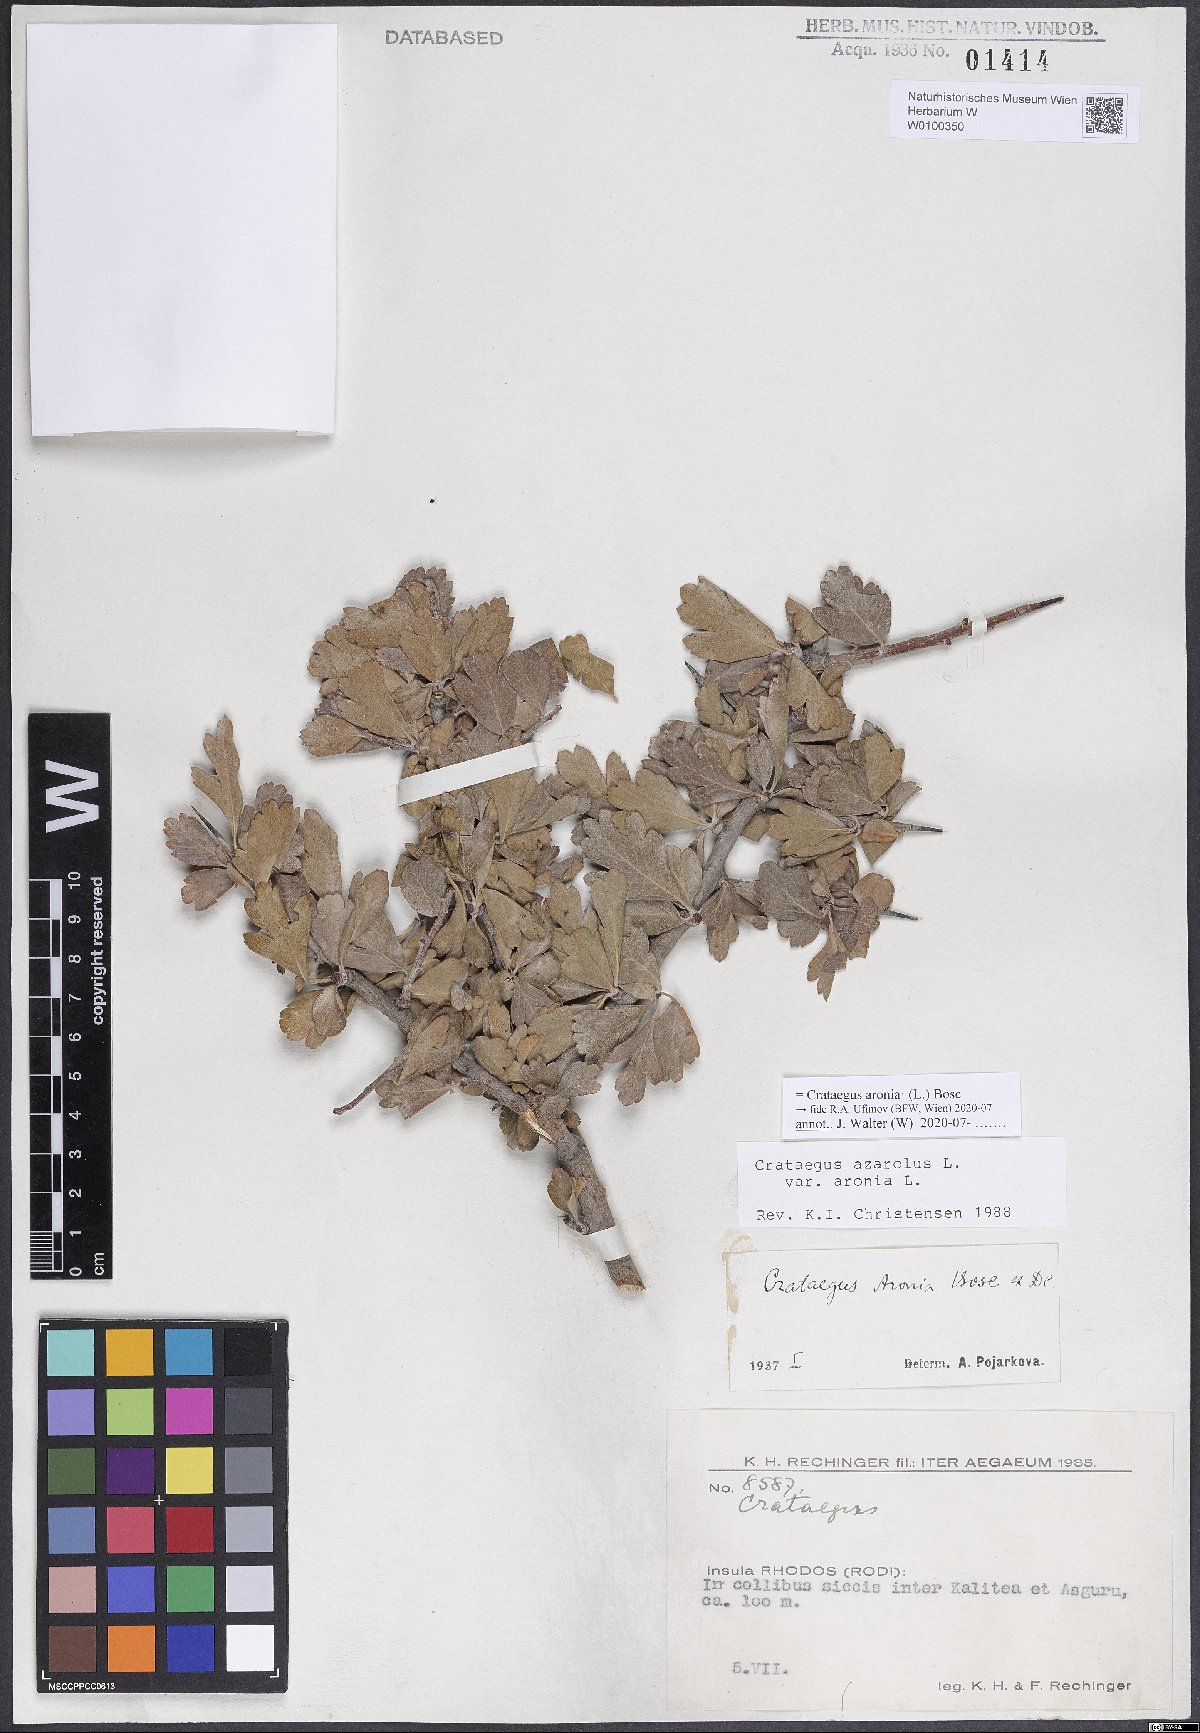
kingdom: Plantae
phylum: Tracheophyta
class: Magnoliopsida
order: Rosales
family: Rosaceae
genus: Crataegus
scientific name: Crataegus azarolus
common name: Azarole
